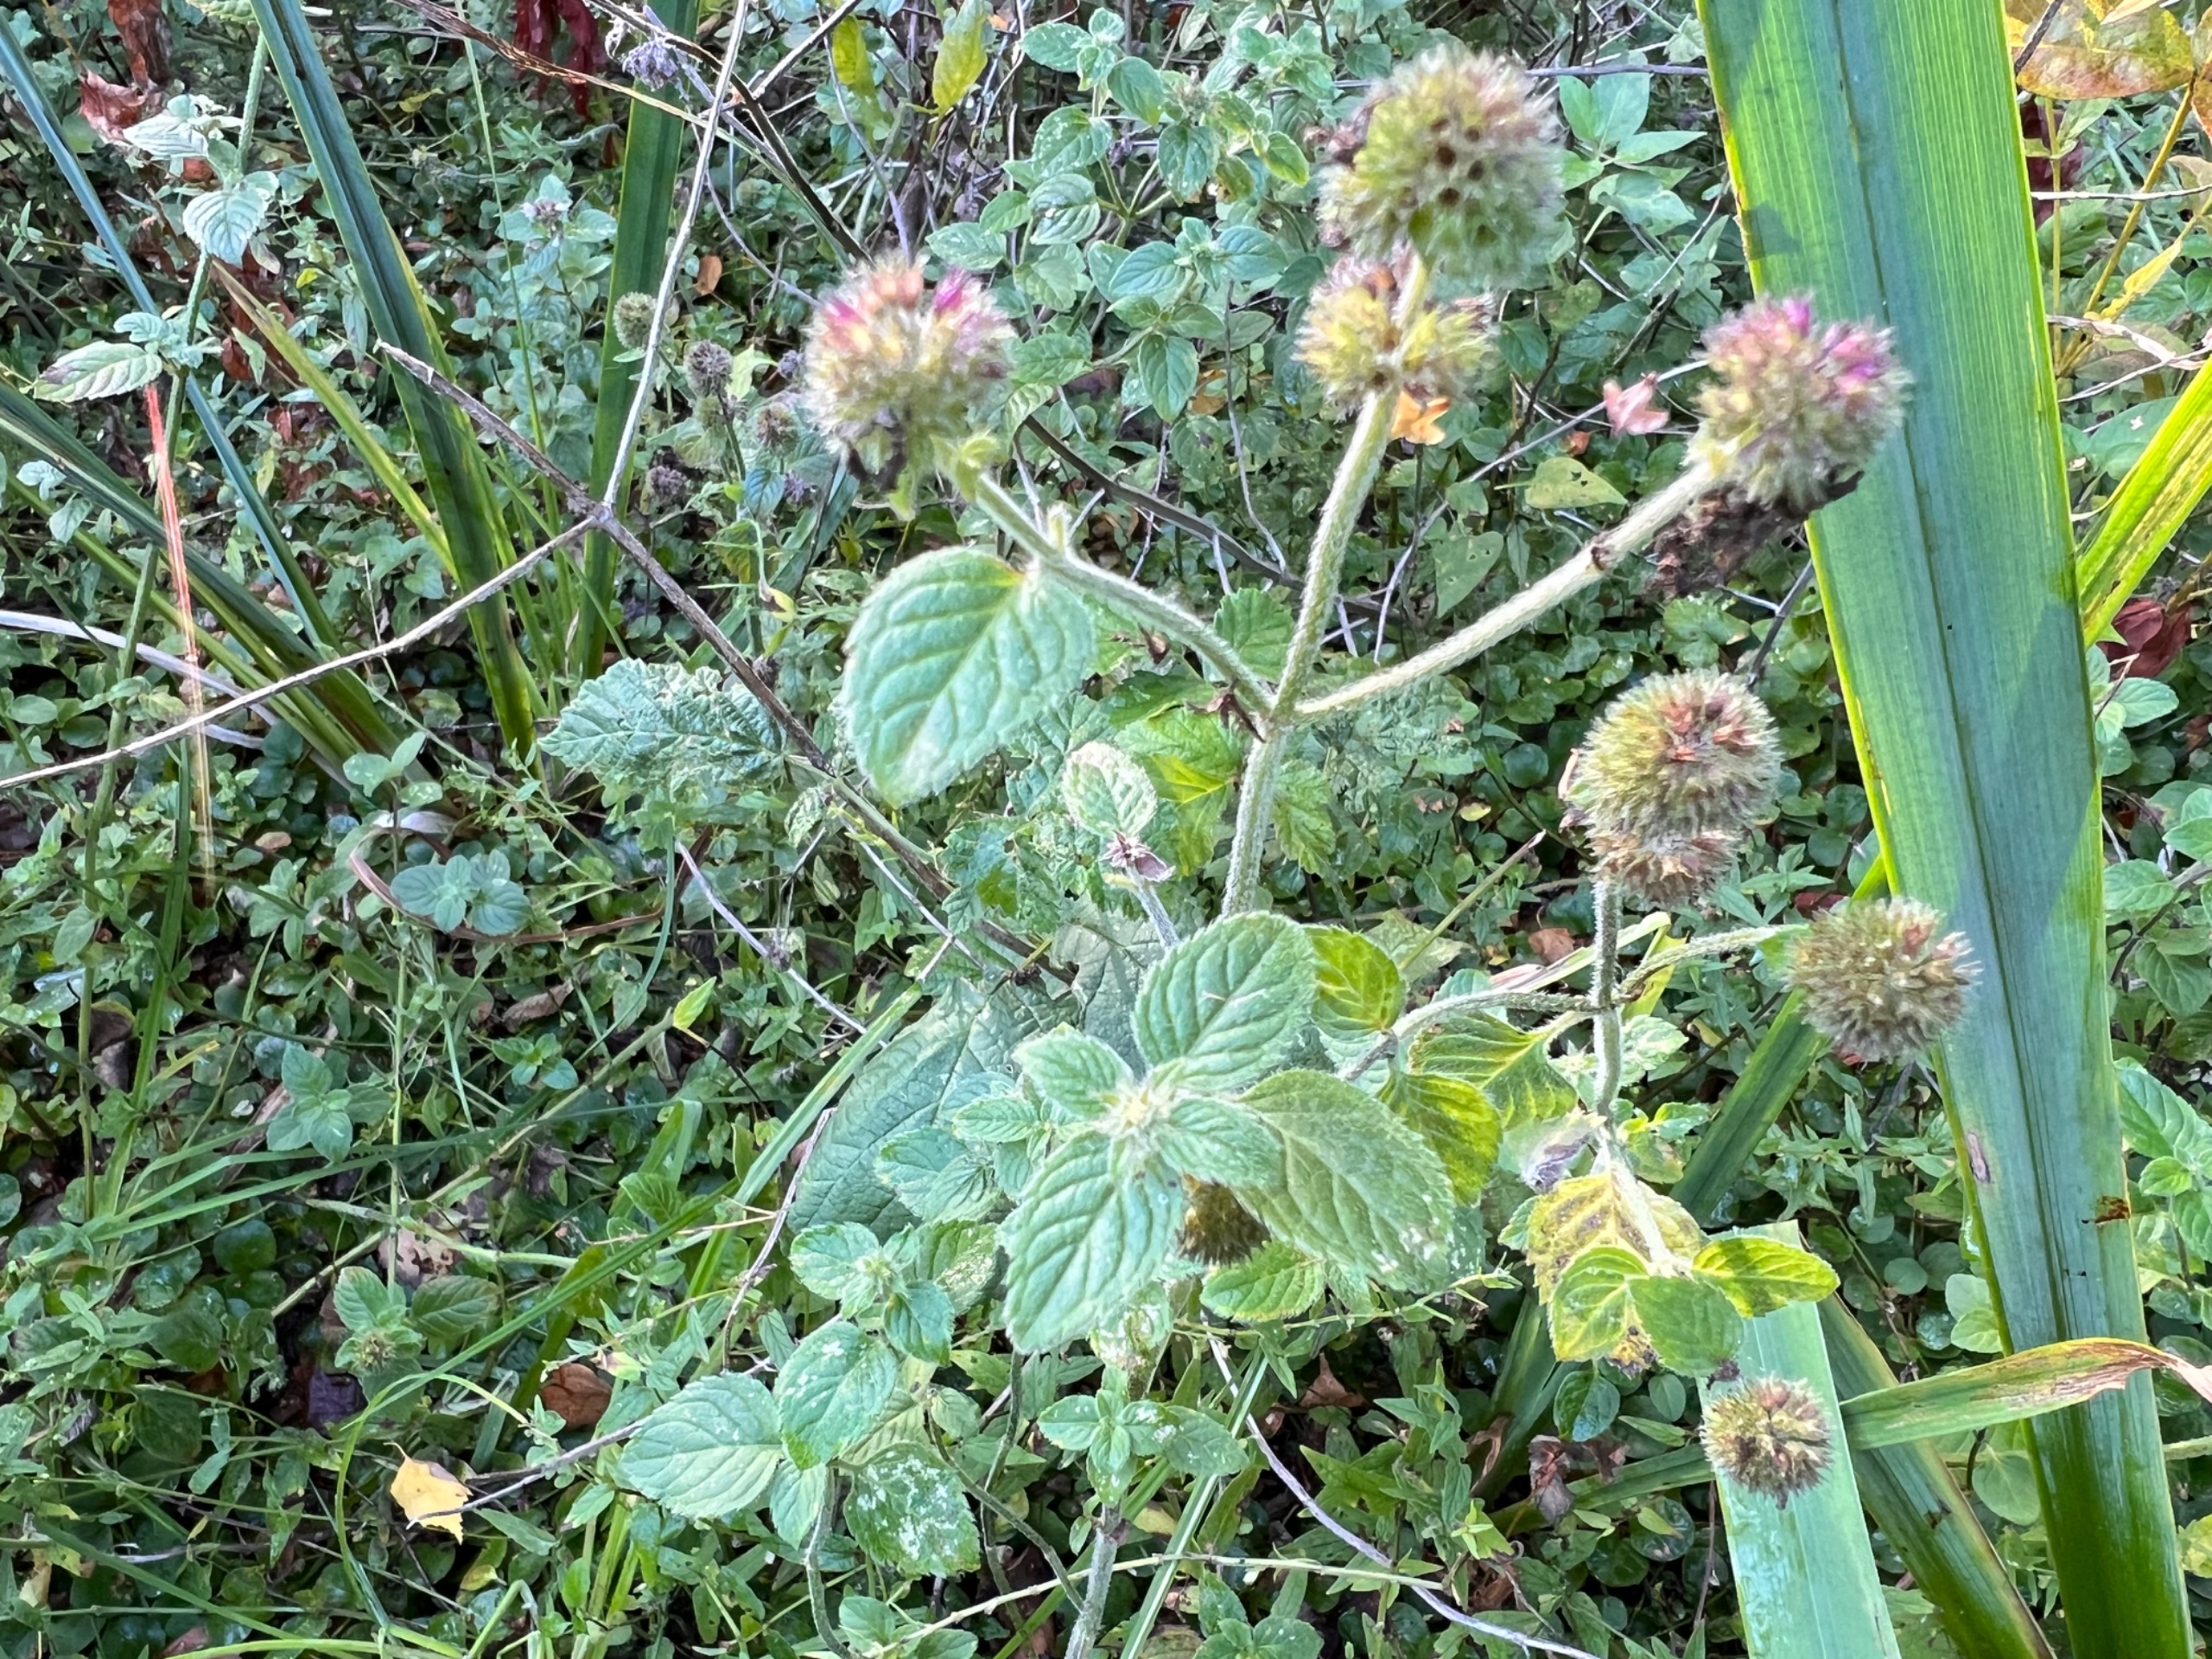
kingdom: Plantae
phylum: Tracheophyta
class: Magnoliopsida
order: Lamiales
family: Lamiaceae
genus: Mentha
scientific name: Mentha aquatica
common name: Vand-mynte
